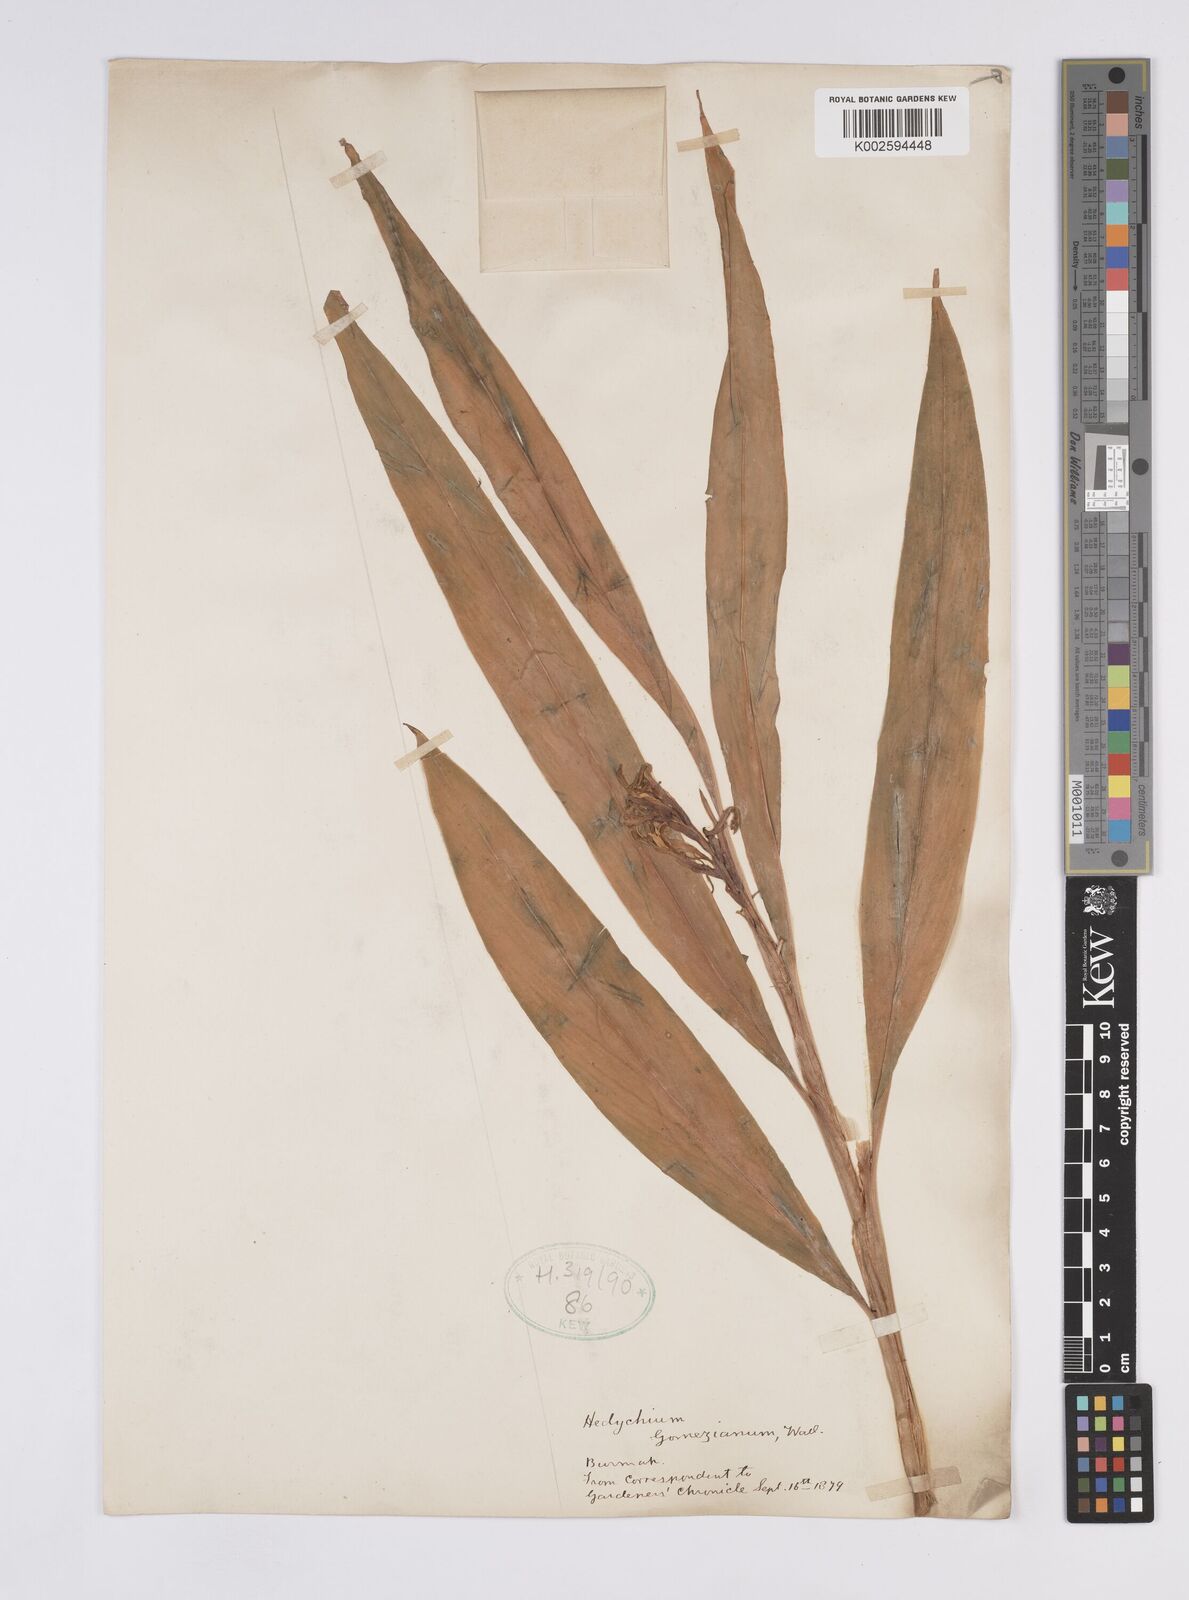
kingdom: Plantae
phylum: Tracheophyta
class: Liliopsida
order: Zingiberales
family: Zingiberaceae
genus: Hedychium
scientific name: Hedychium gomezianum
